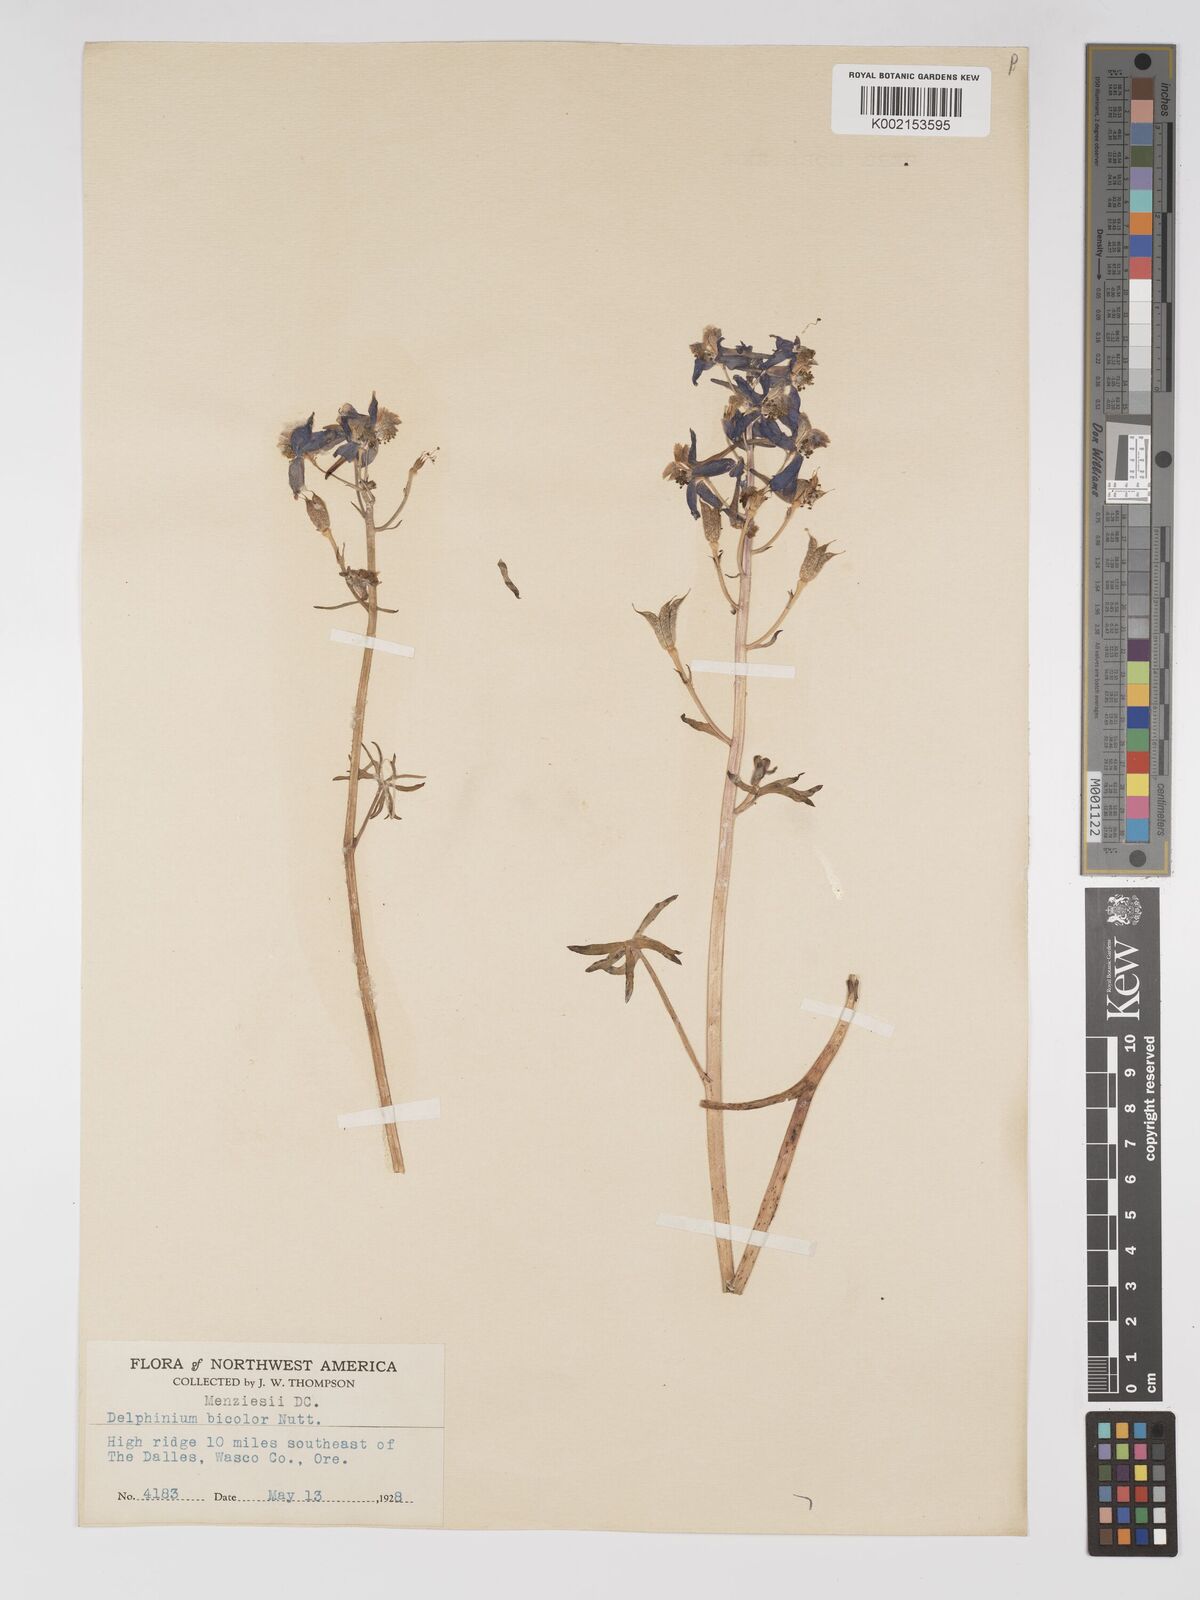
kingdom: Plantae
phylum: Tracheophyta
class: Magnoliopsida
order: Ranunculales
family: Ranunculaceae
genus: Delphinium
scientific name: Delphinium bicolor
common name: Low larkspur
